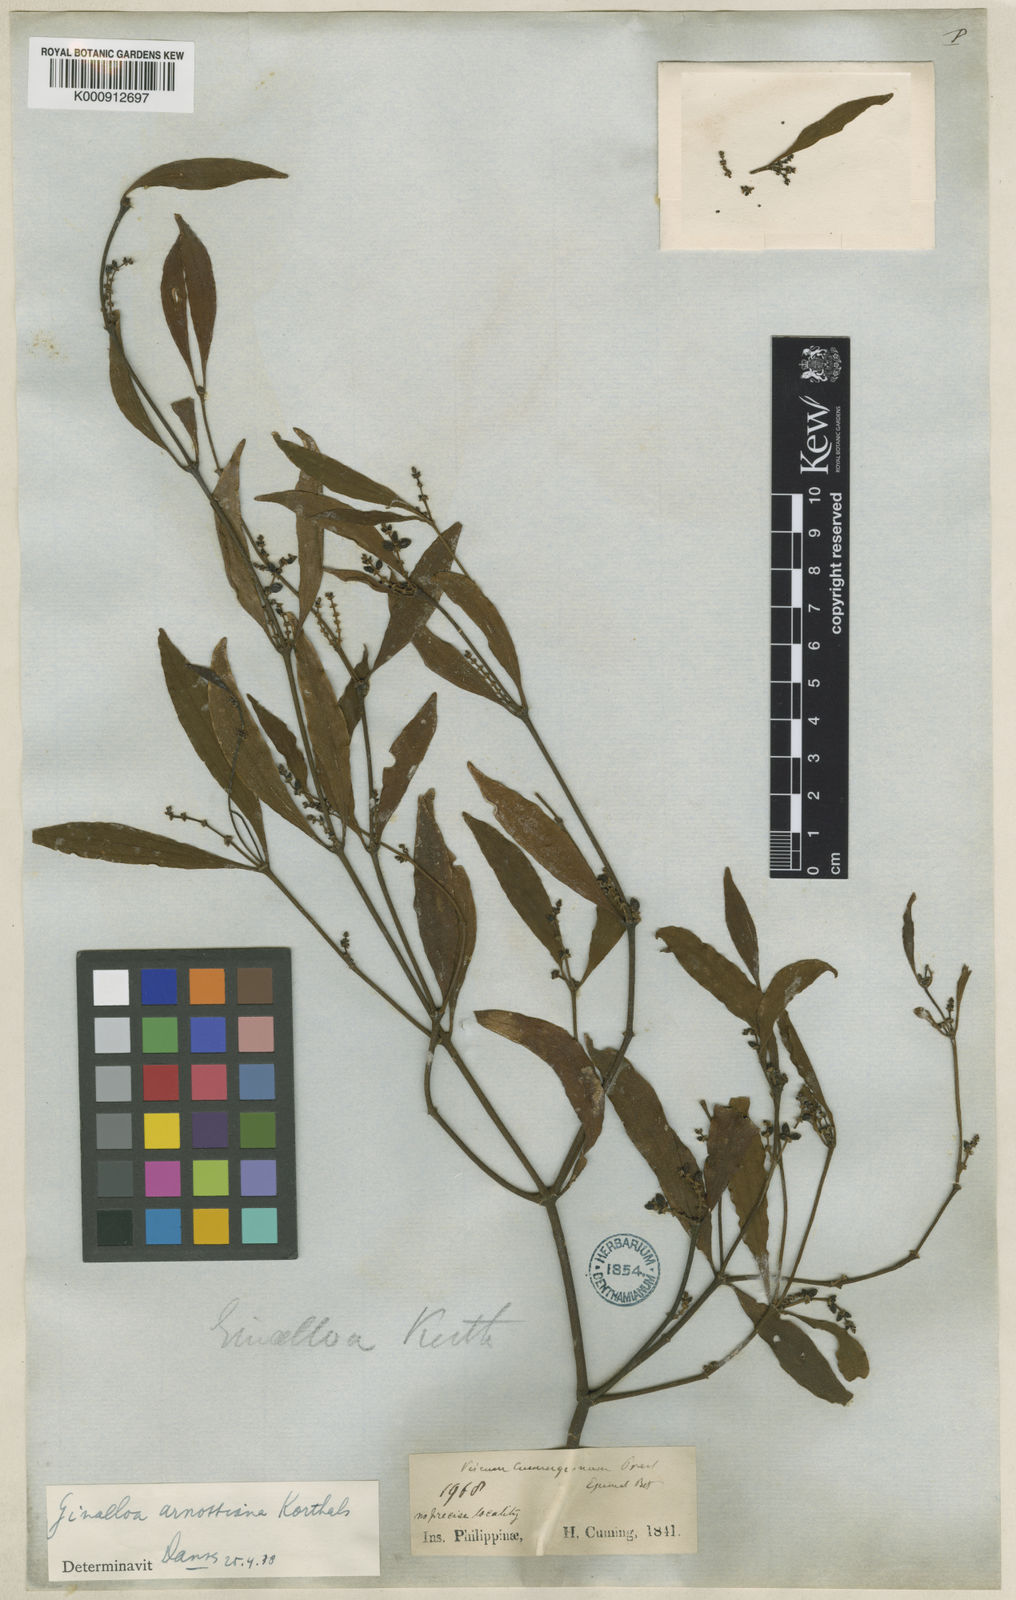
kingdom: Plantae
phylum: Tracheophyta
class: Magnoliopsida
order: Santalales
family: Viscaceae
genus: Ginalloa
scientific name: Ginalloa arnottiana
